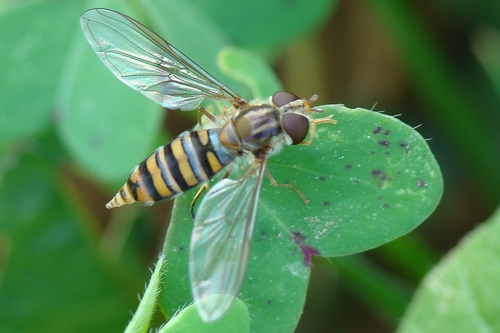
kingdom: Animalia
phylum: Arthropoda
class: Insecta
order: Diptera
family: Syrphidae
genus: Episyrphus
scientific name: Episyrphus balteatus
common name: Marmalade hoverfly
